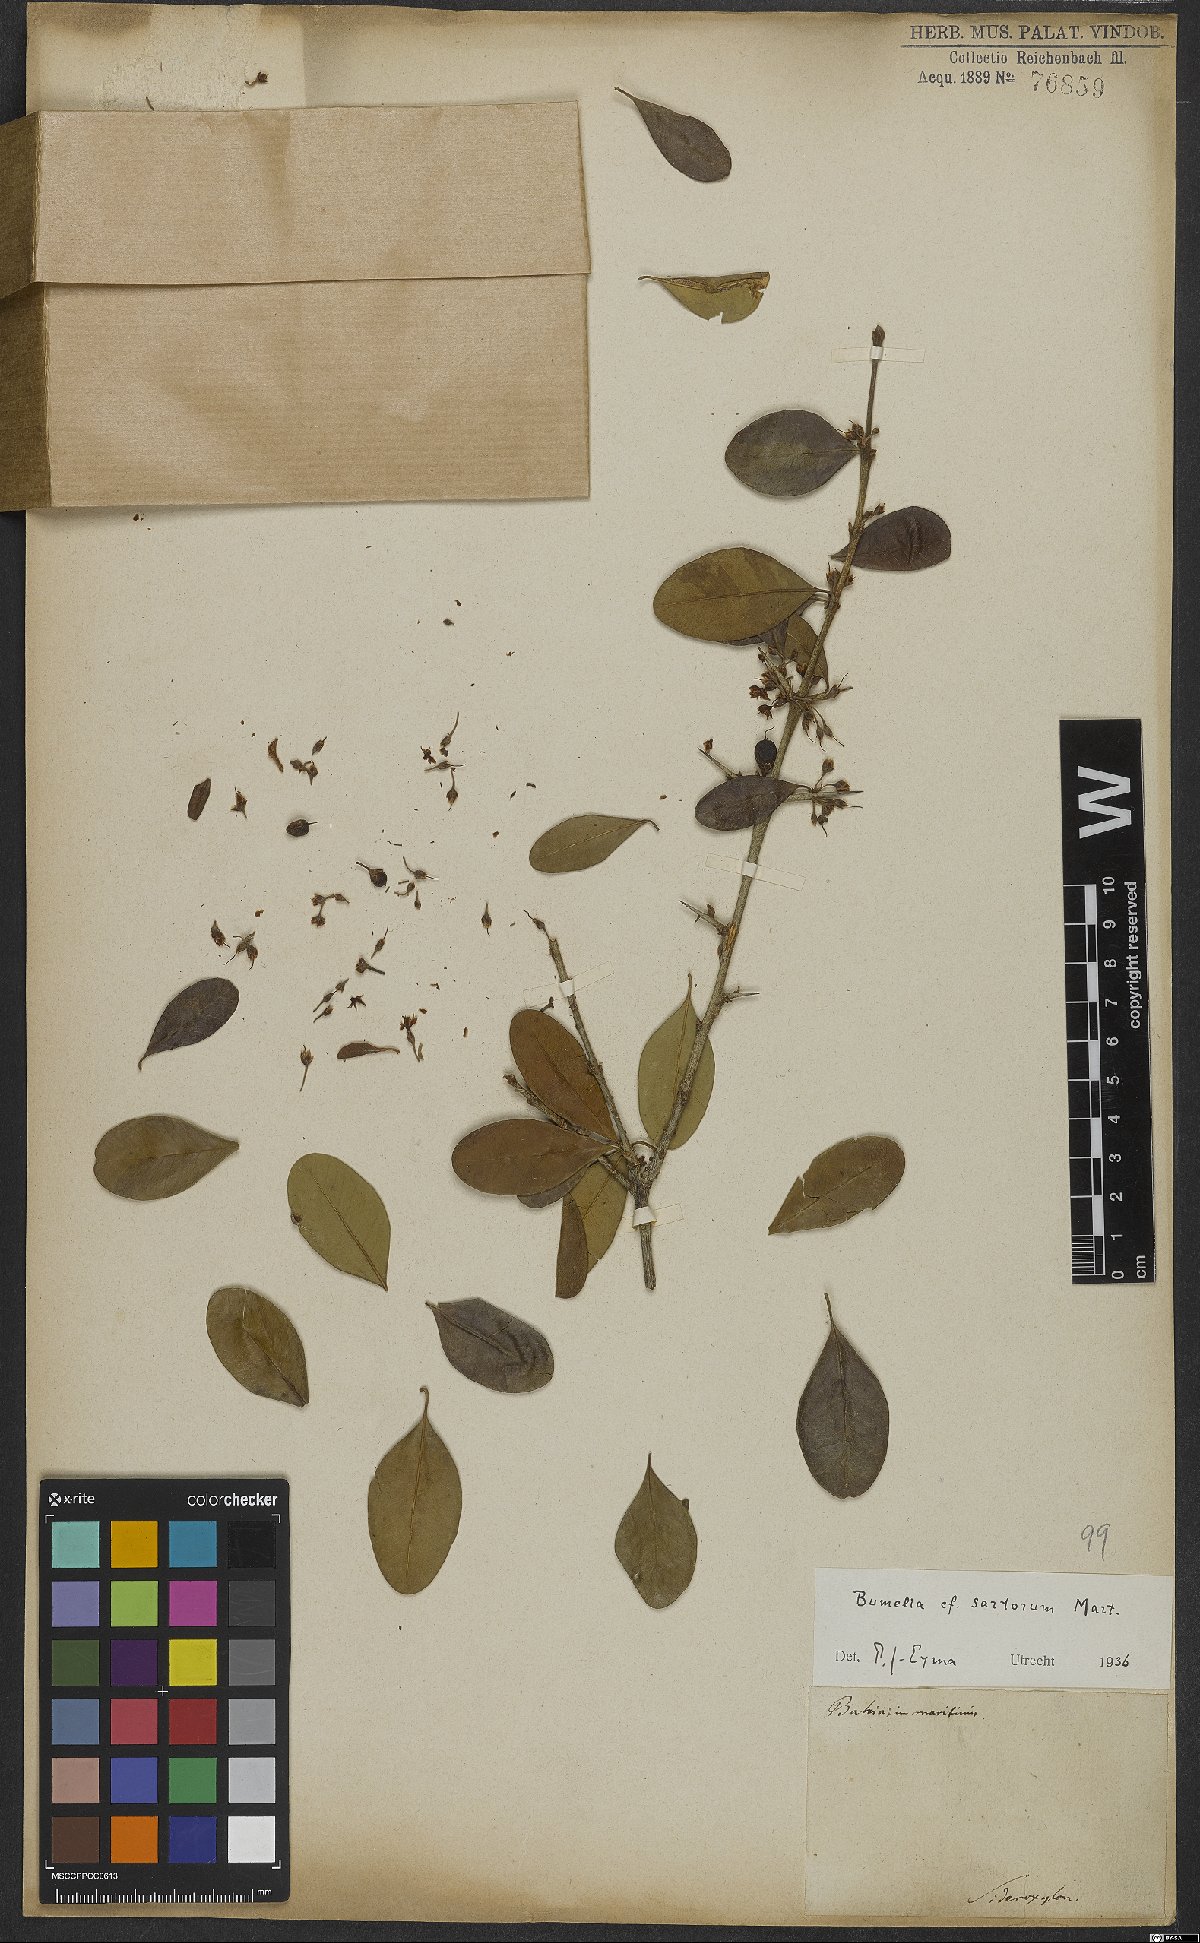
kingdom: Plantae
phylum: Tracheophyta
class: Magnoliopsida
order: Ericales
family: Sapotaceae
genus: Sideroxylon
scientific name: Sideroxylon obtusifolium
